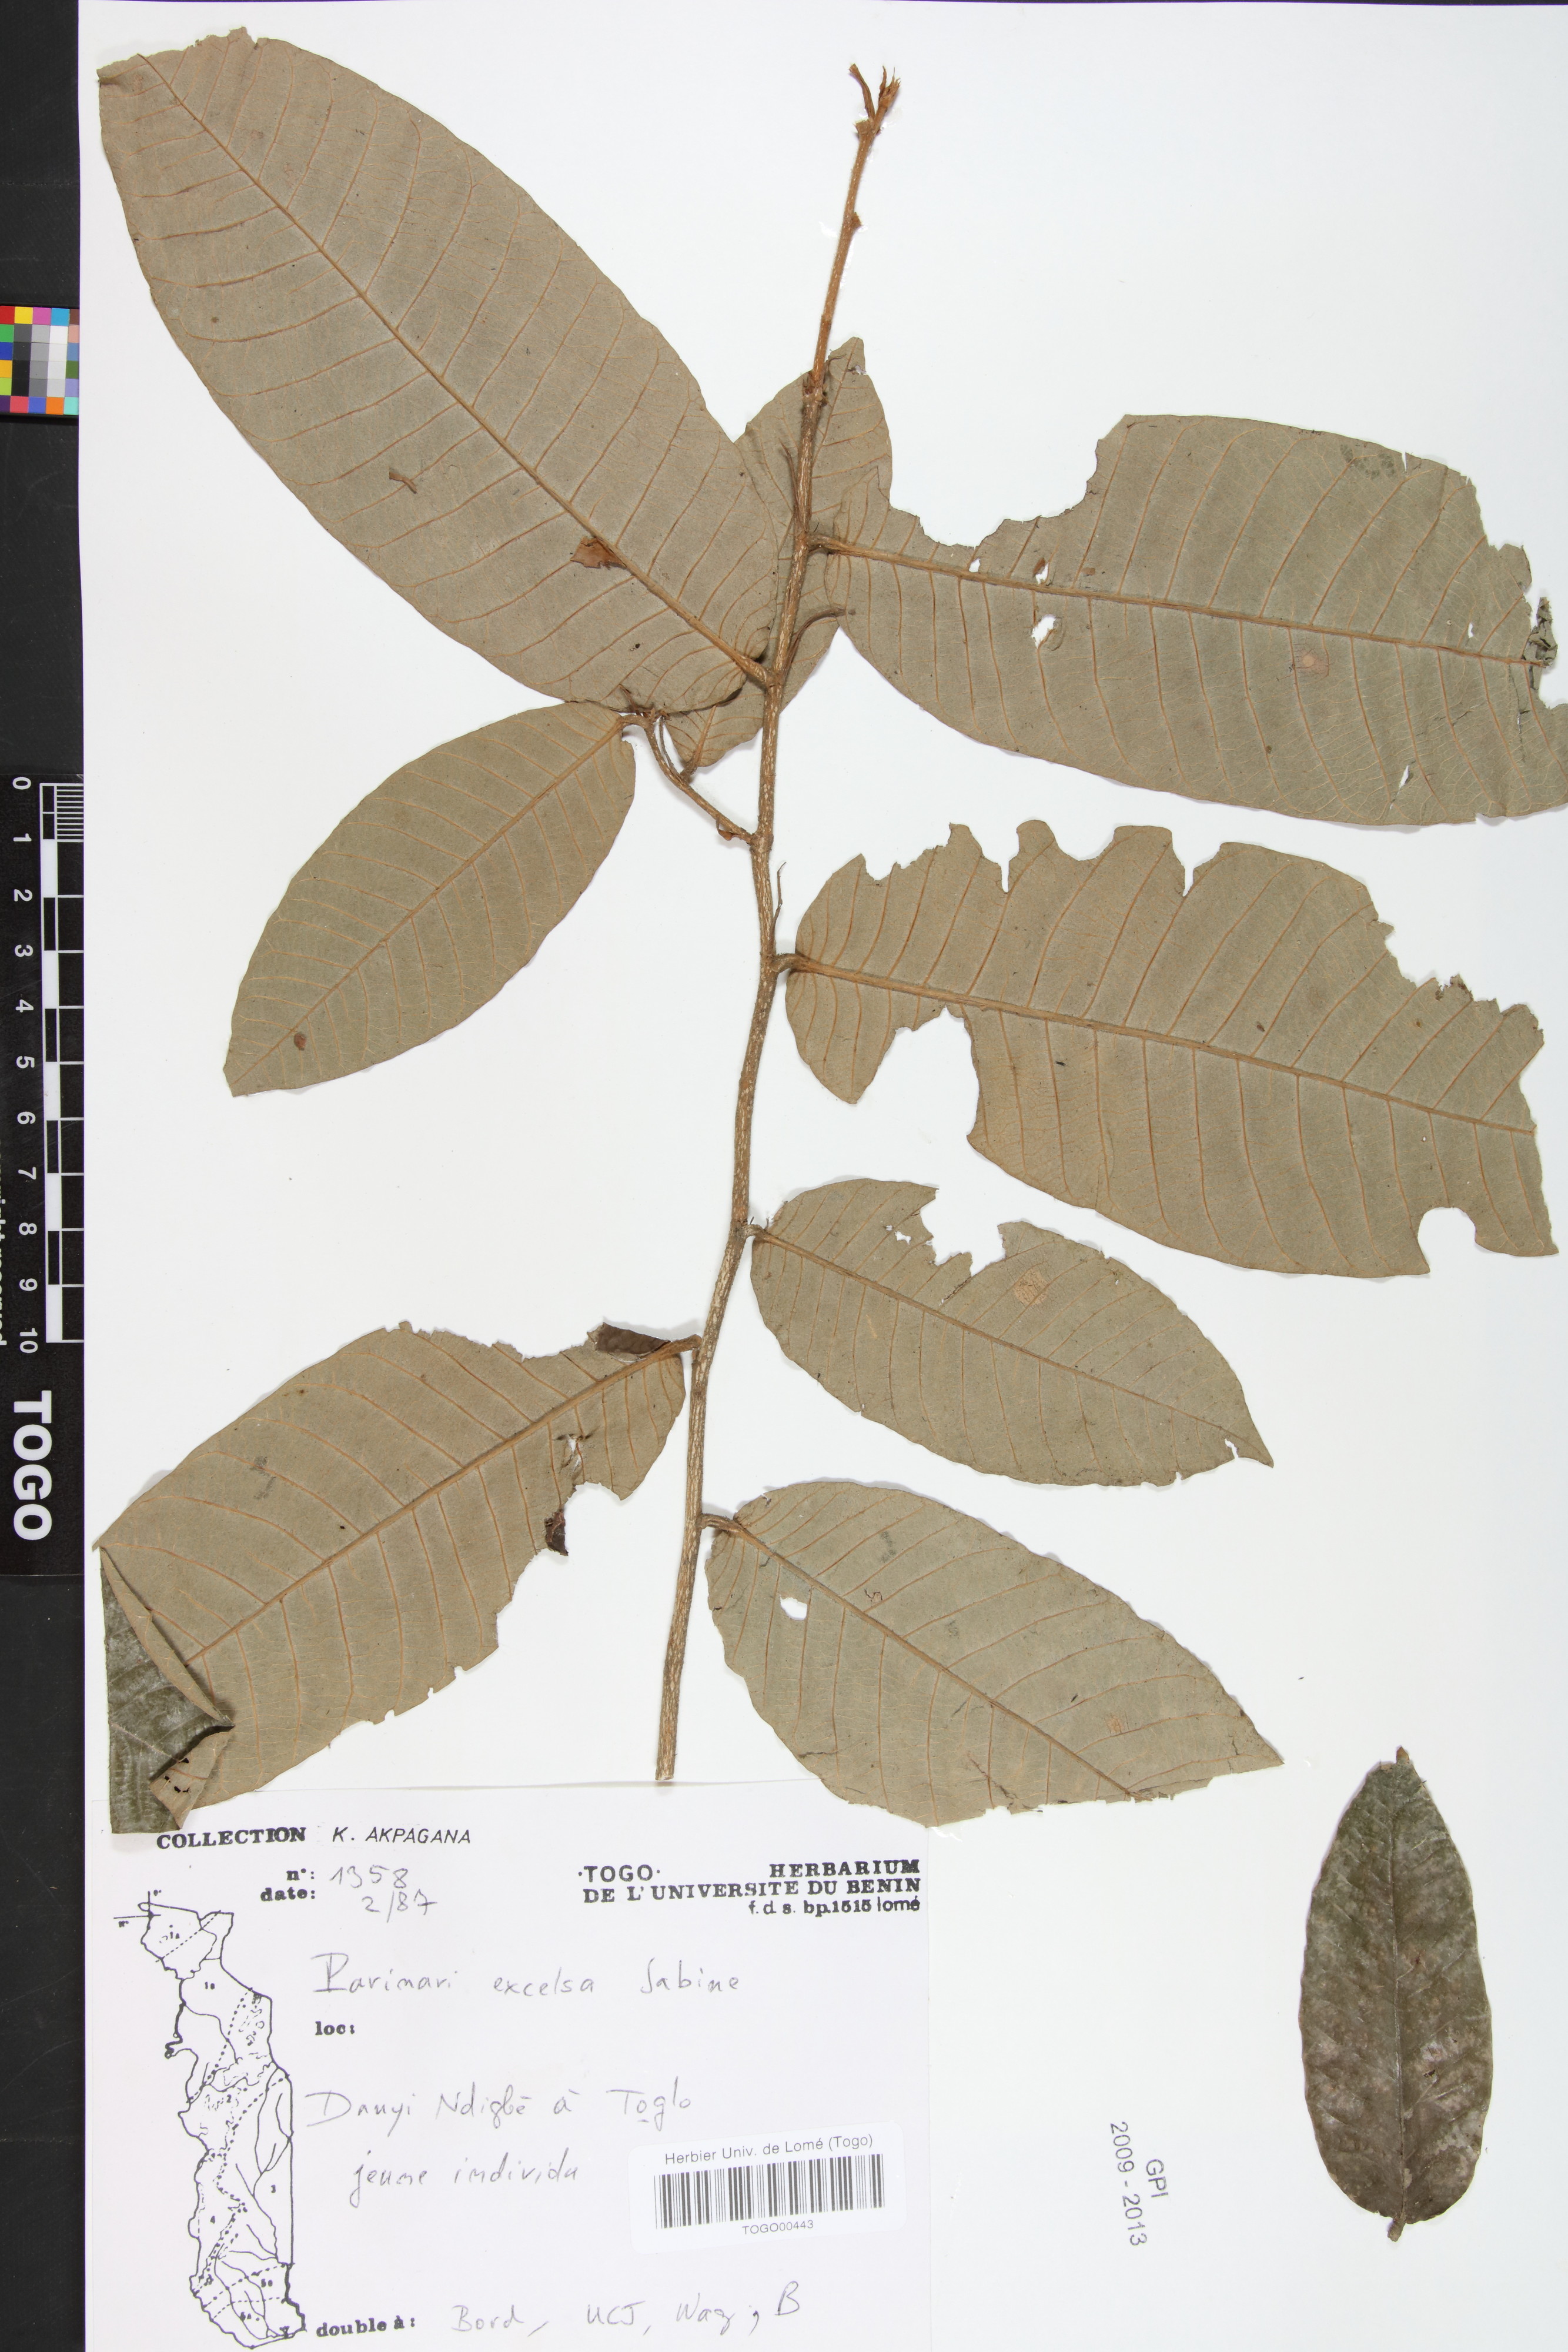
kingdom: Plantae
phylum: Tracheophyta
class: Magnoliopsida
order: Malpighiales
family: Chrysobalanaceae
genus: Parinari
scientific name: Parinari excelsa
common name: Guinea-plum
